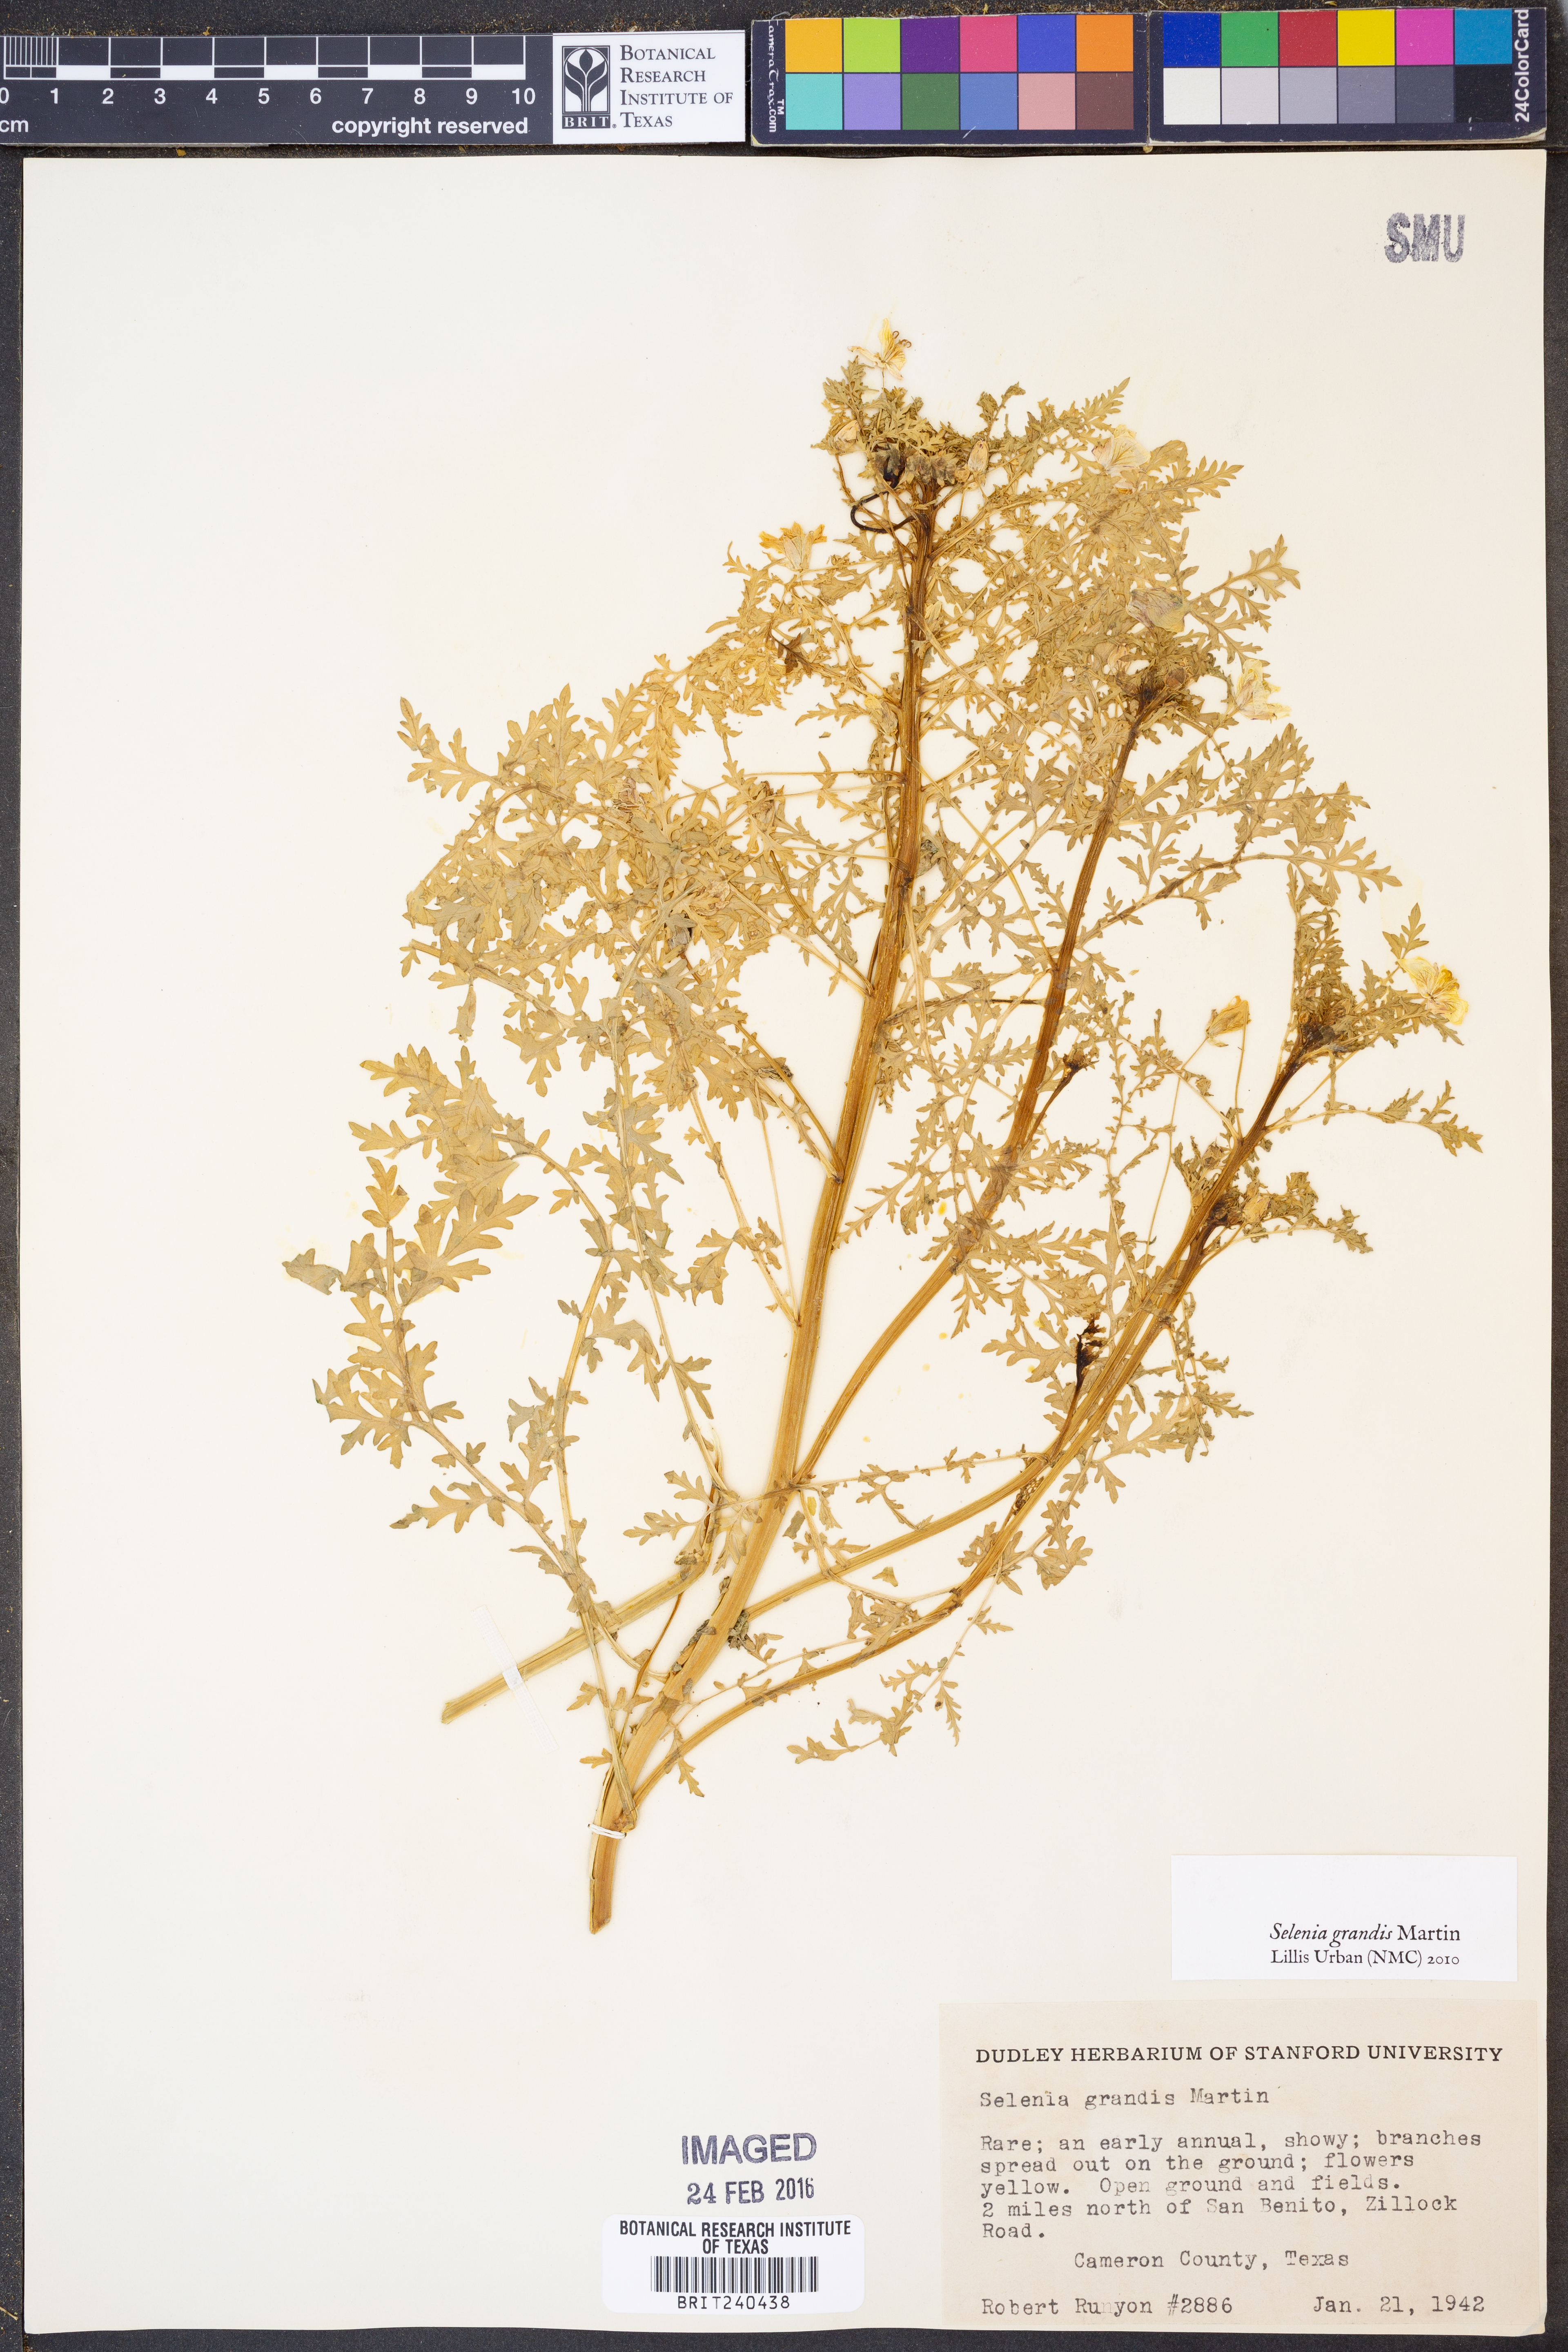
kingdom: Plantae
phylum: Tracheophyta
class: Magnoliopsida
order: Brassicales
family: Brassicaceae
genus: Selenia
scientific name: Selenia grandis
